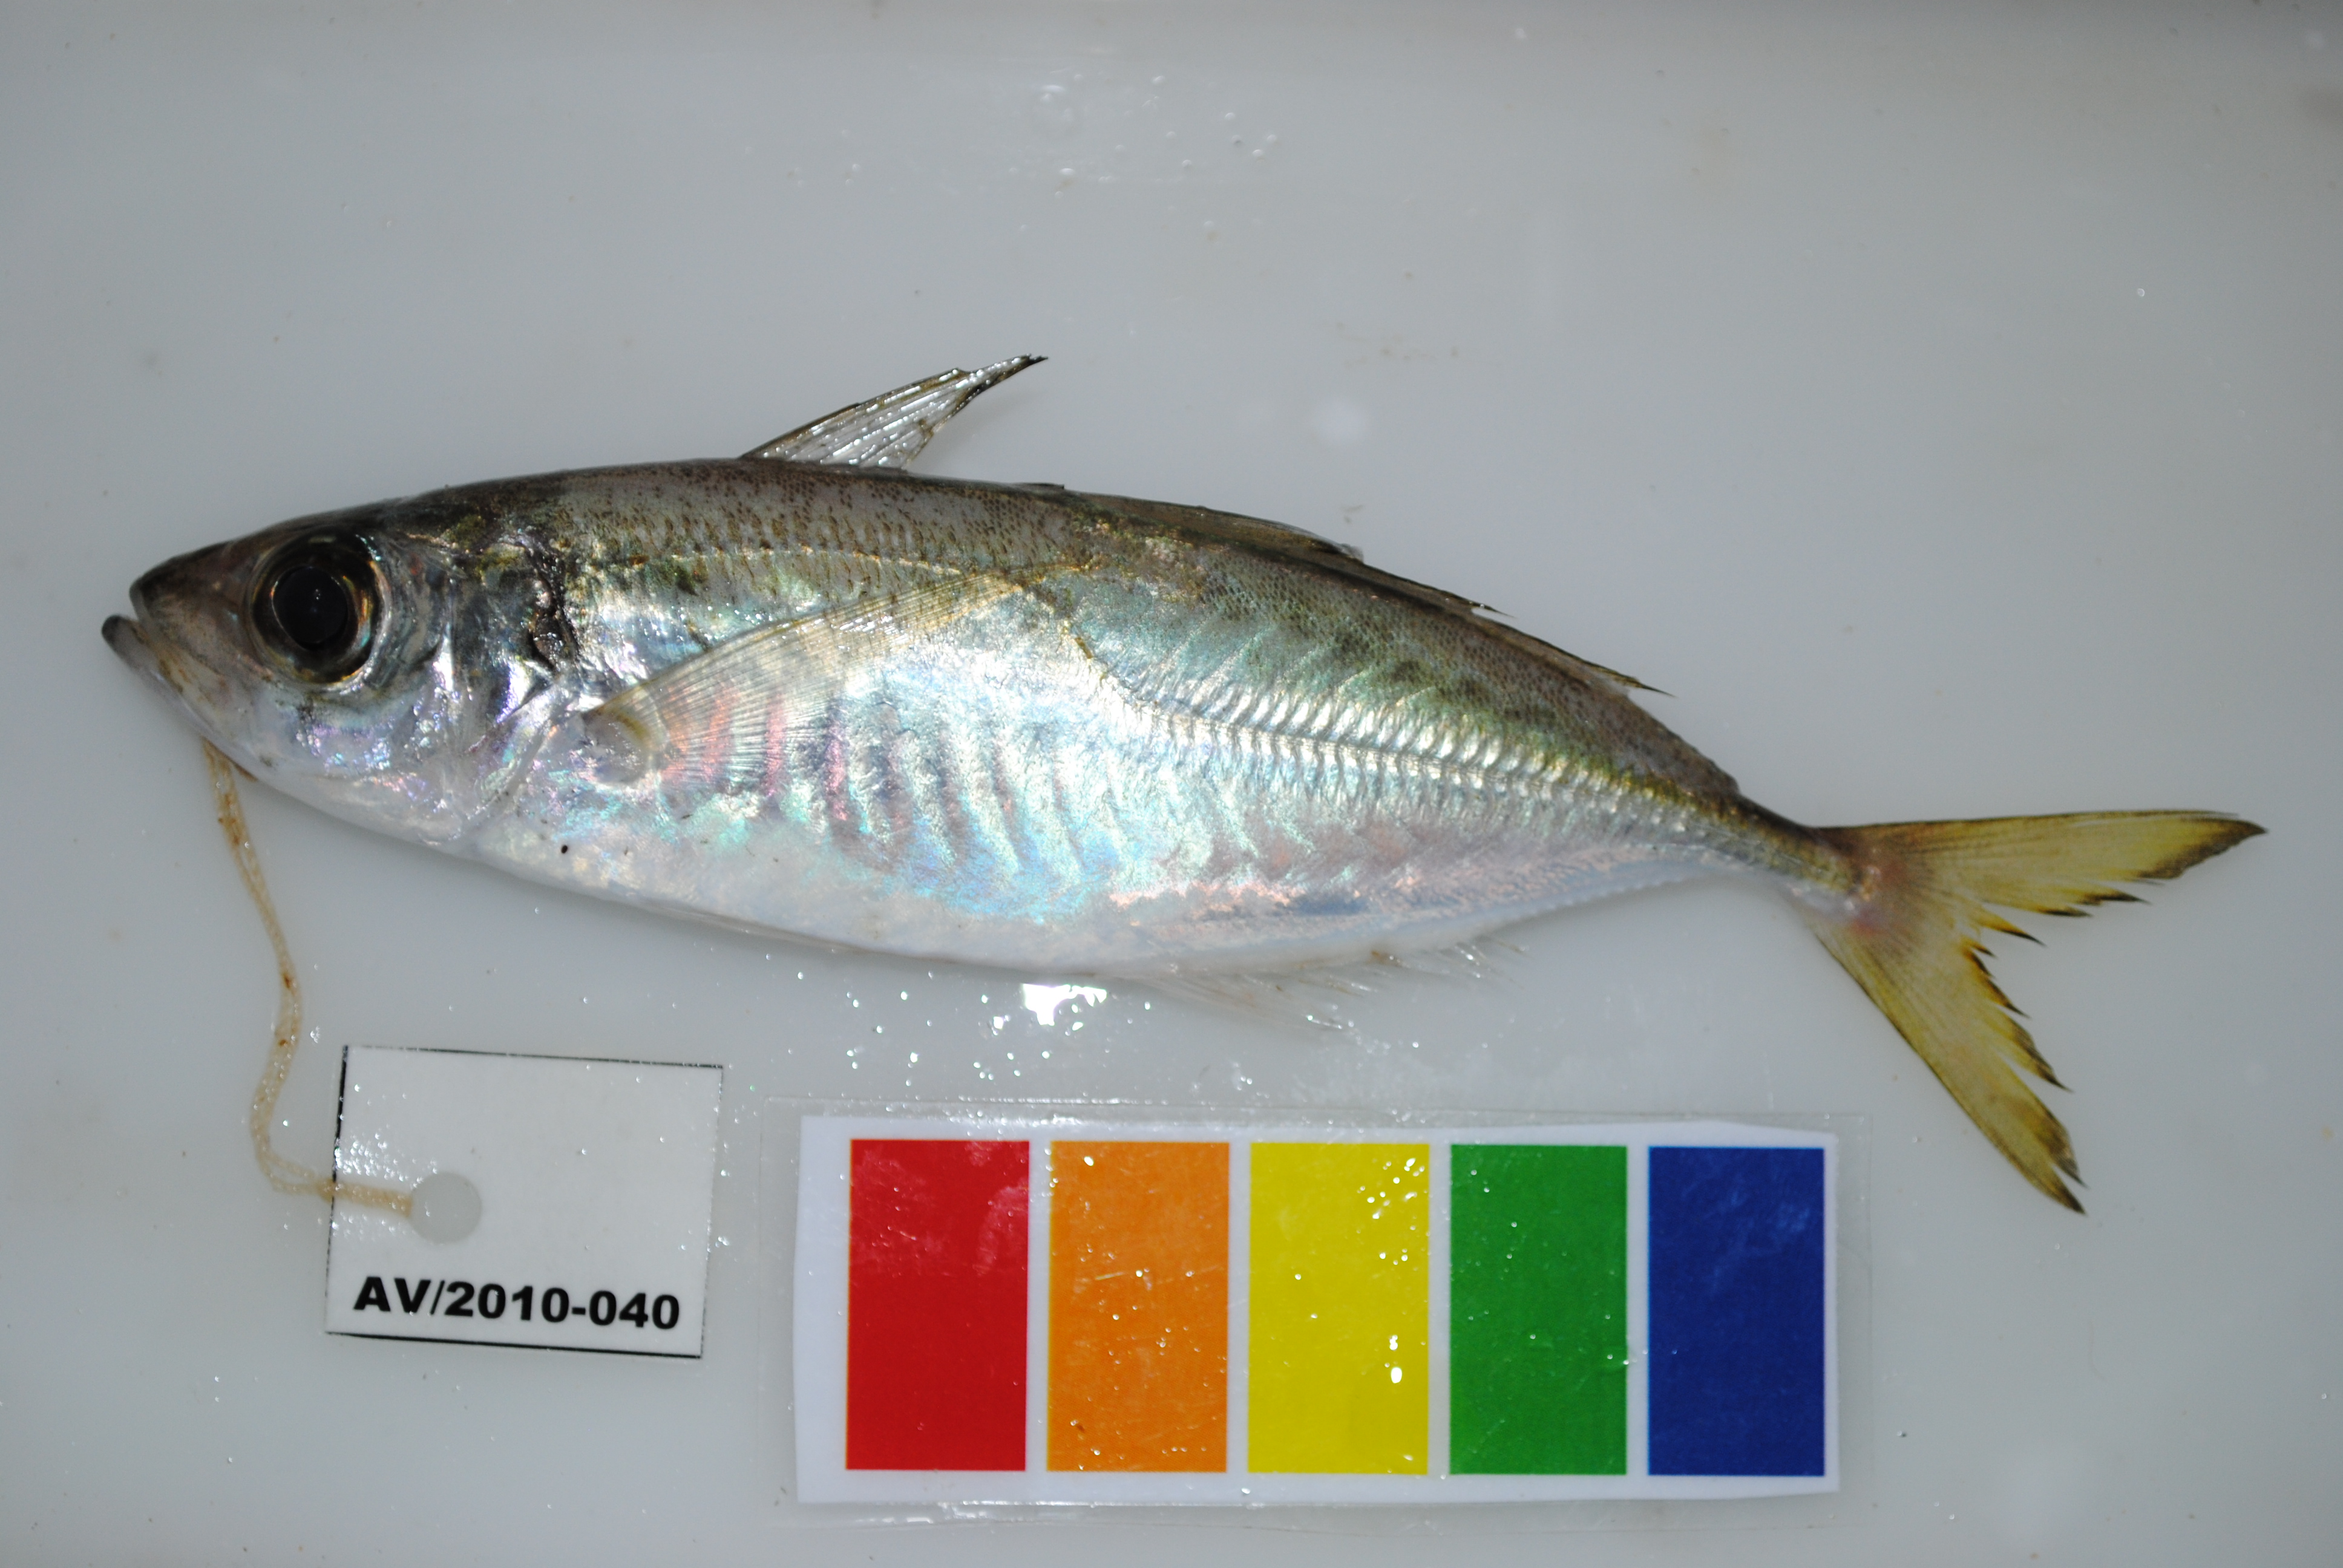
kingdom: Animalia
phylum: Chordata
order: Perciformes
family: Carangidae
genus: Trachurus
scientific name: Trachurus delagoa
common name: African scad
